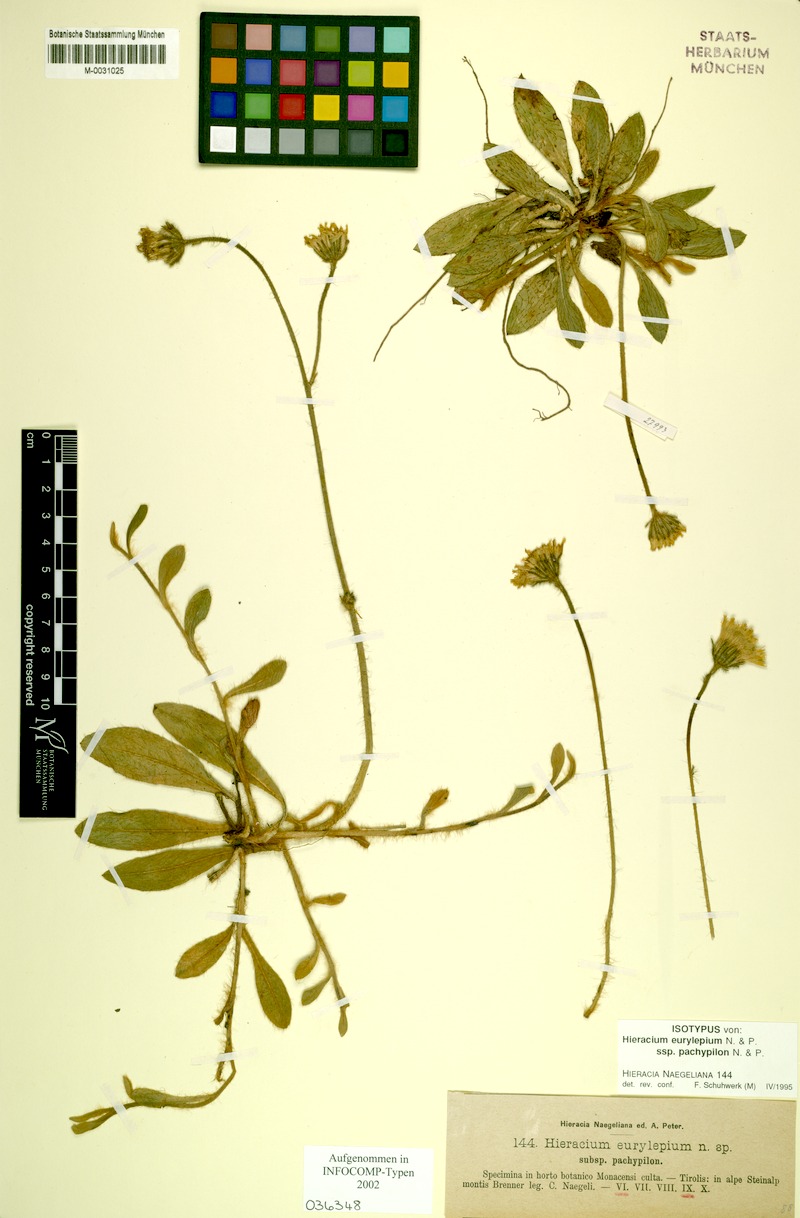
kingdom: Plantae
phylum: Tracheophyta
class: Magnoliopsida
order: Asterales
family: Asteraceae
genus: Pilosella
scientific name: Pilosella pachypila
